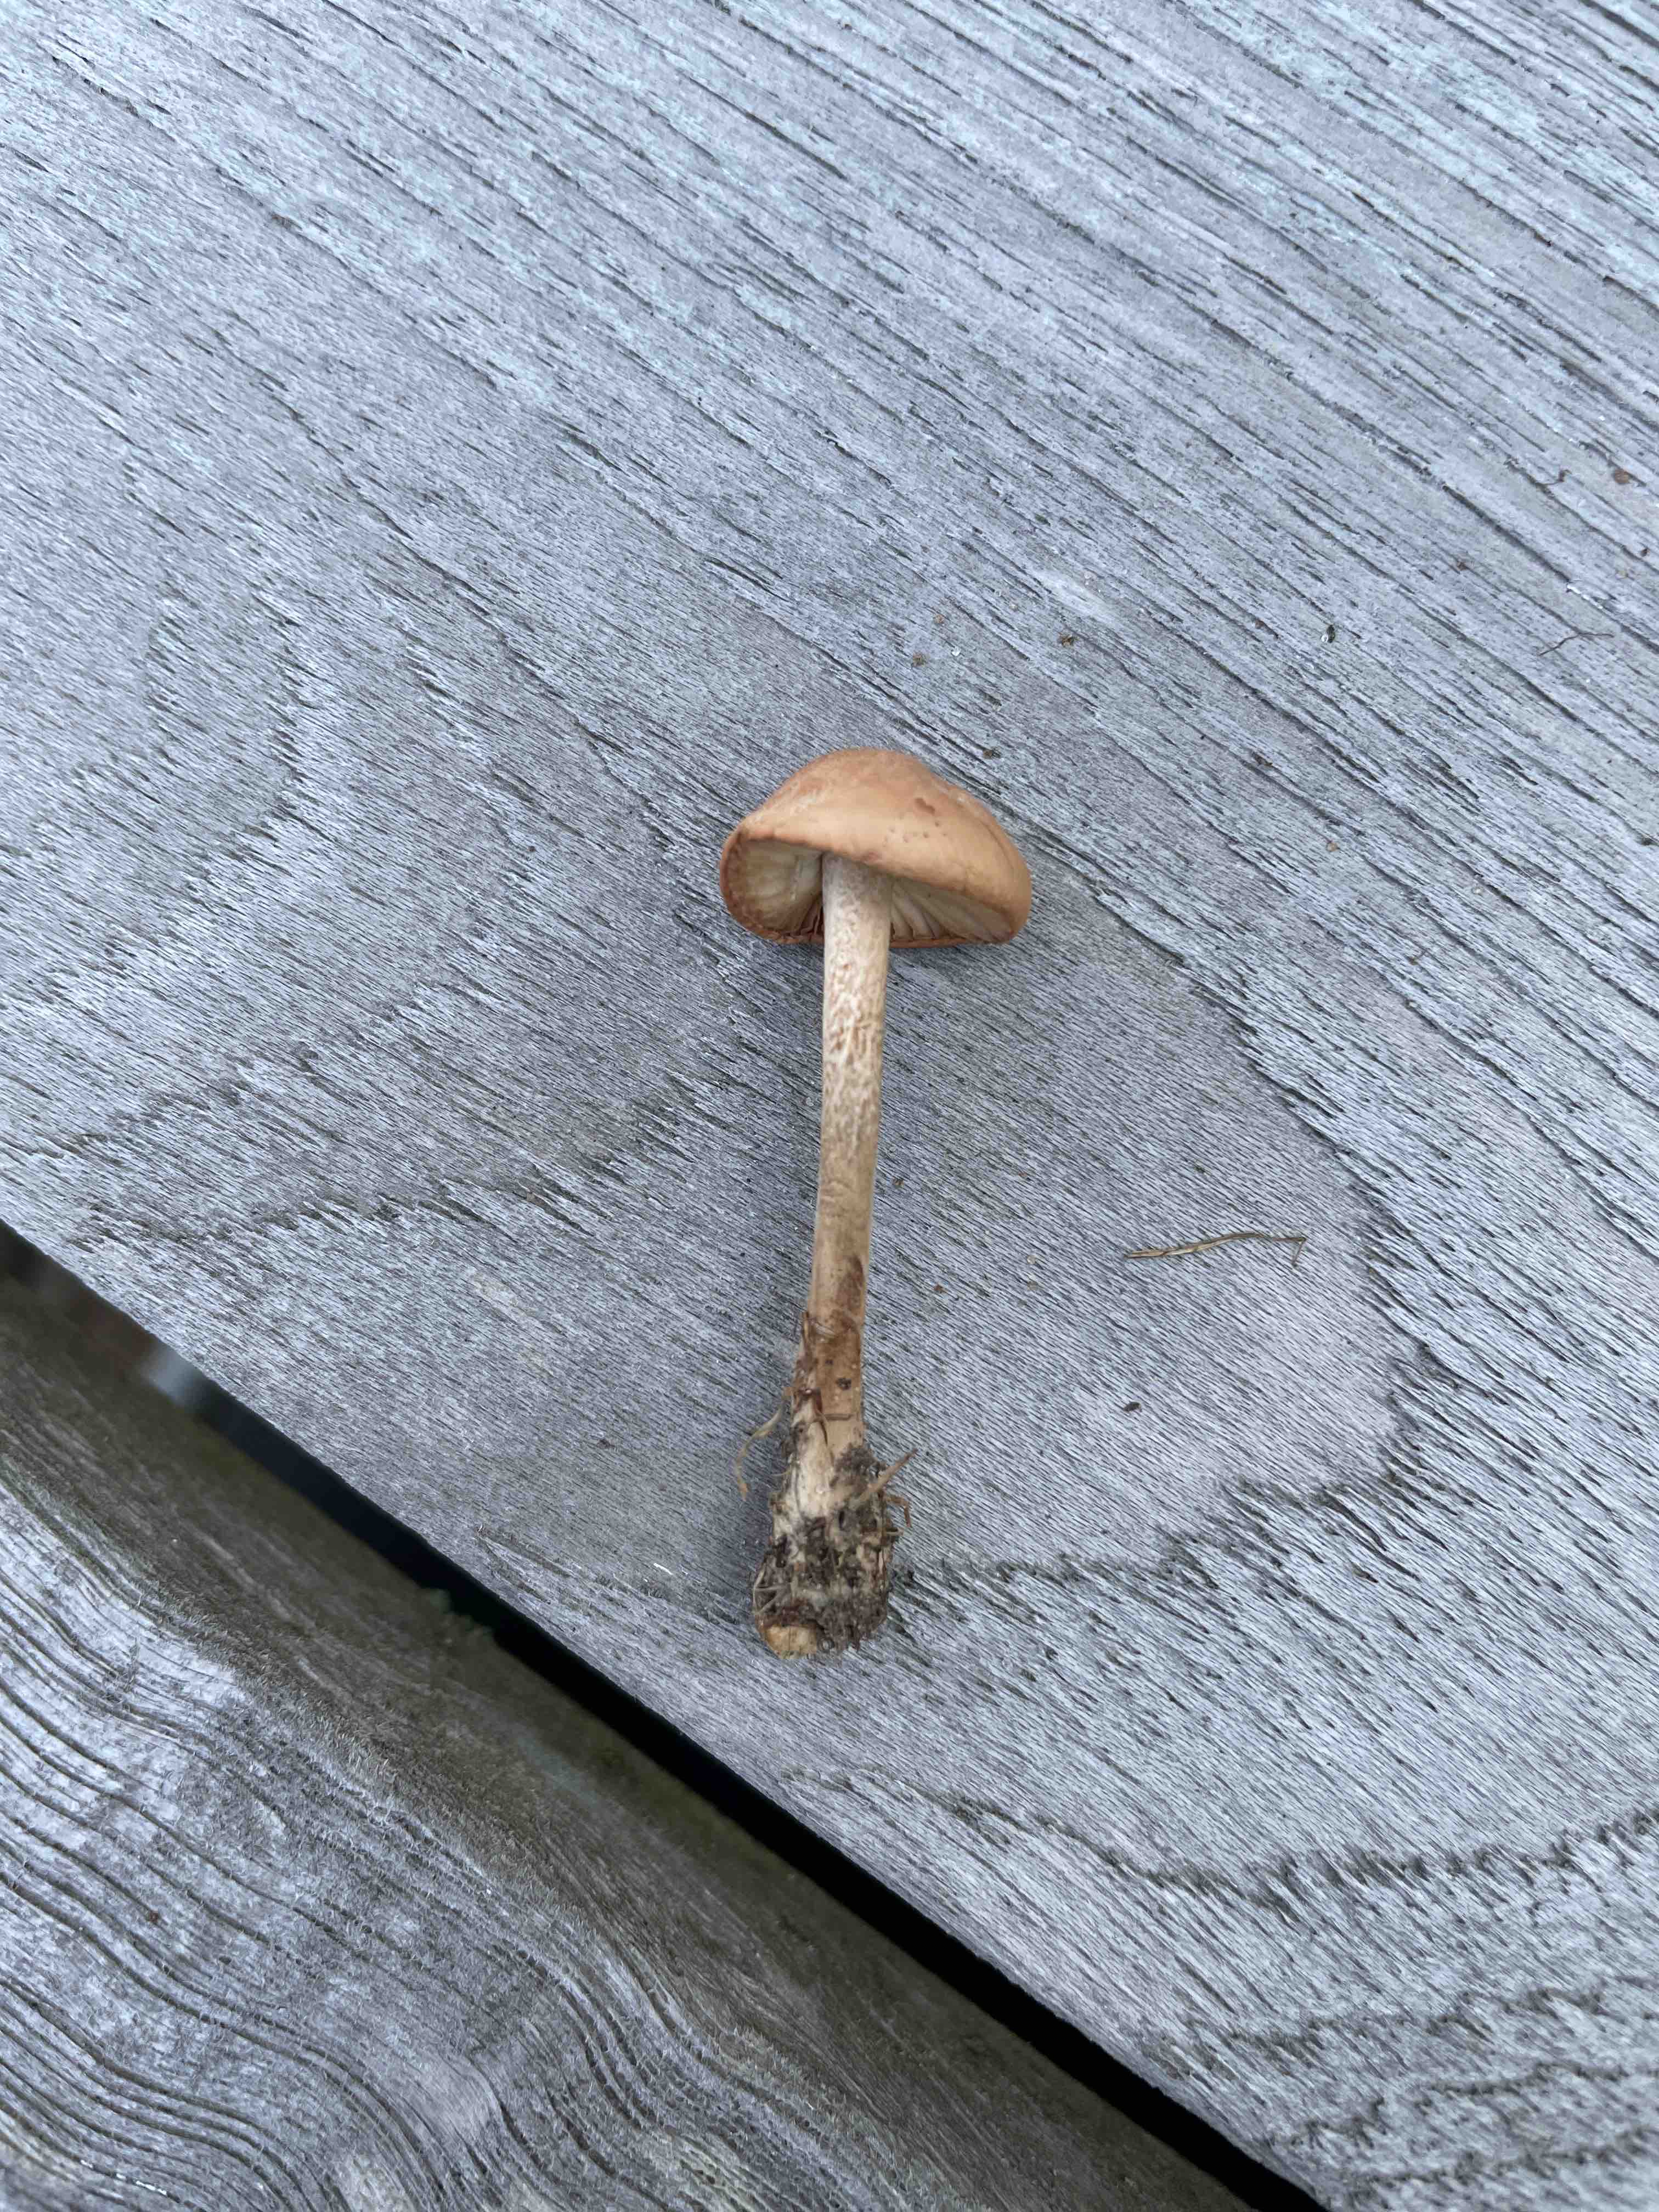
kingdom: Fungi
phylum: Basidiomycota
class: Agaricomycetes
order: Agaricales
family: Marasmiaceae
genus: Marasmius
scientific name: Marasmius oreades
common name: elledans-bruskhat
